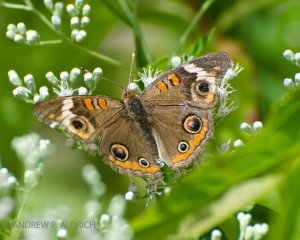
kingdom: Animalia
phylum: Arthropoda
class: Insecta
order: Lepidoptera
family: Nymphalidae
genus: Junonia
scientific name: Junonia coenia
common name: Common Buckeye
